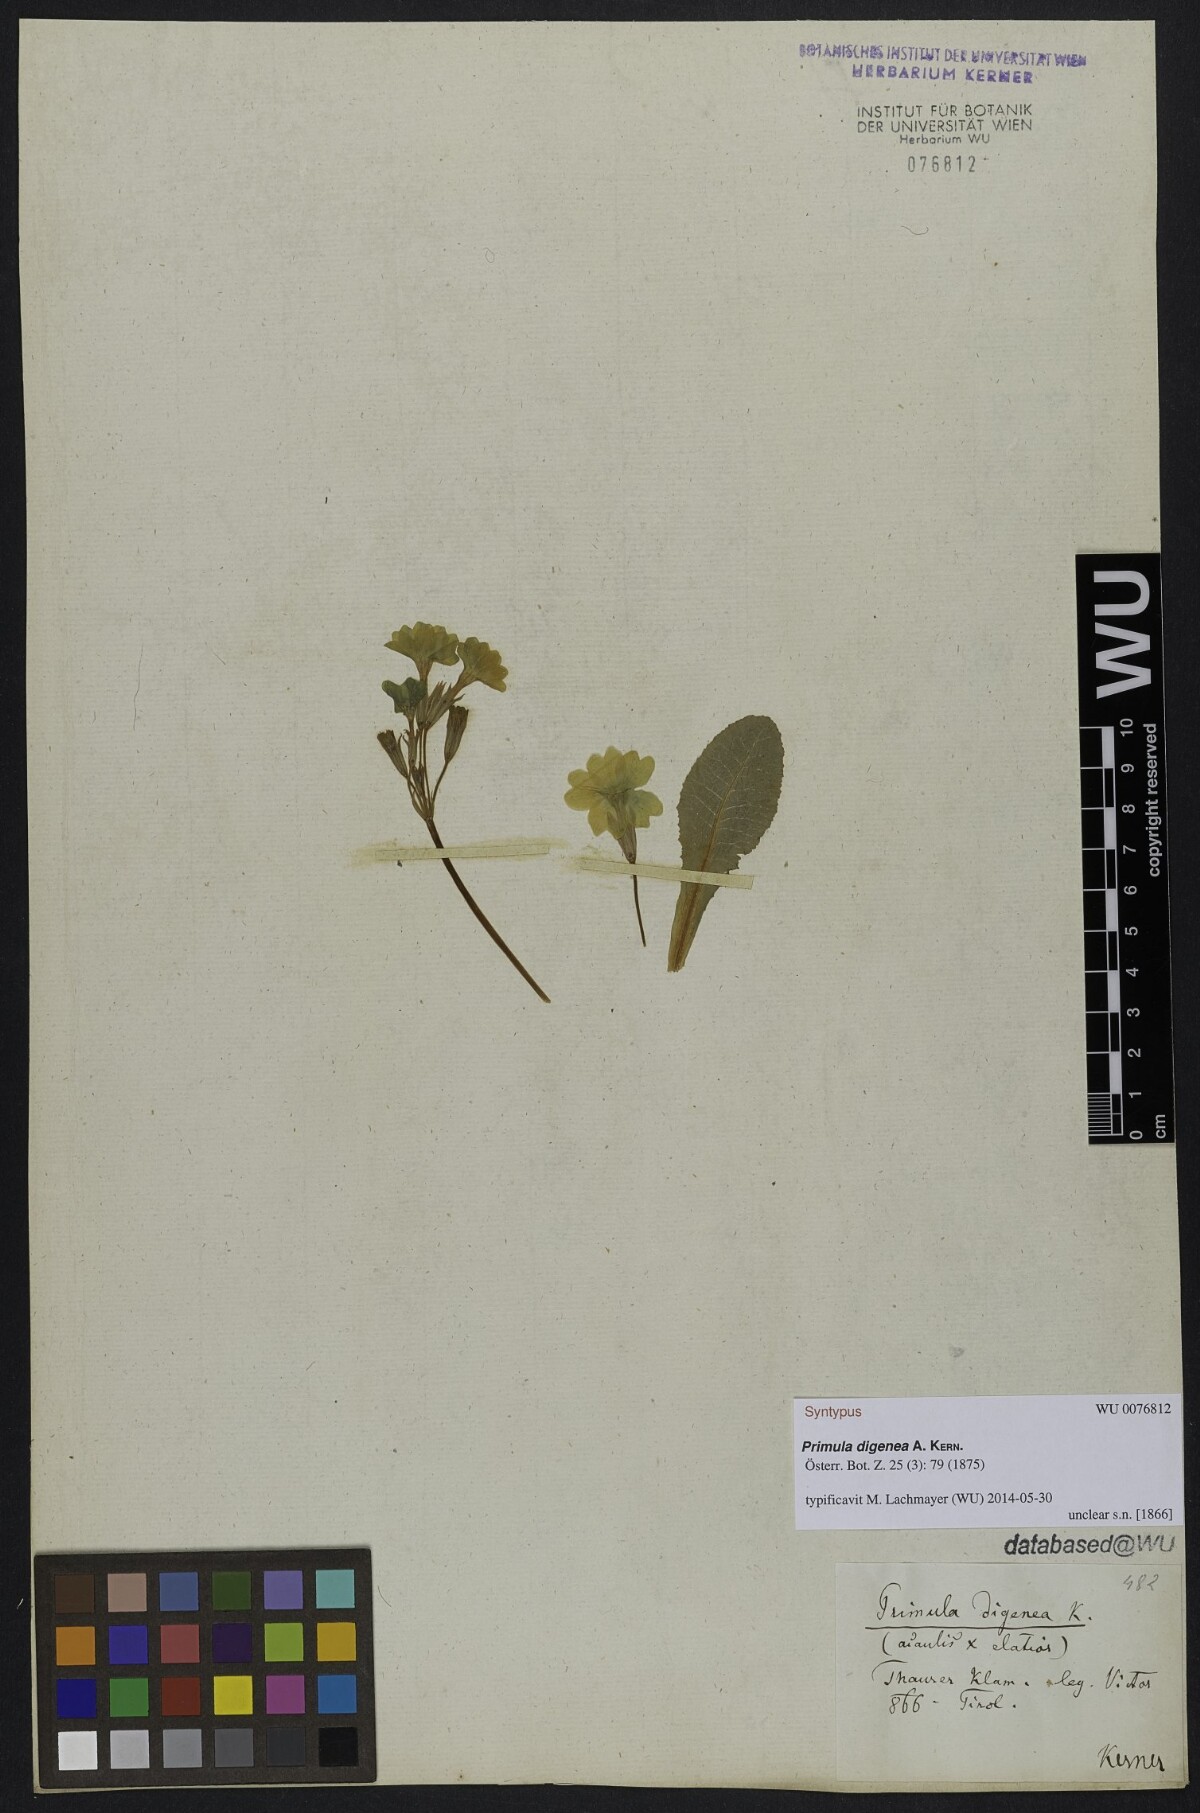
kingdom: Plantae
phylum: Tracheophyta
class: Magnoliopsida
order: Ericales
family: Primulaceae
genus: Primula
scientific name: Primula digenea
